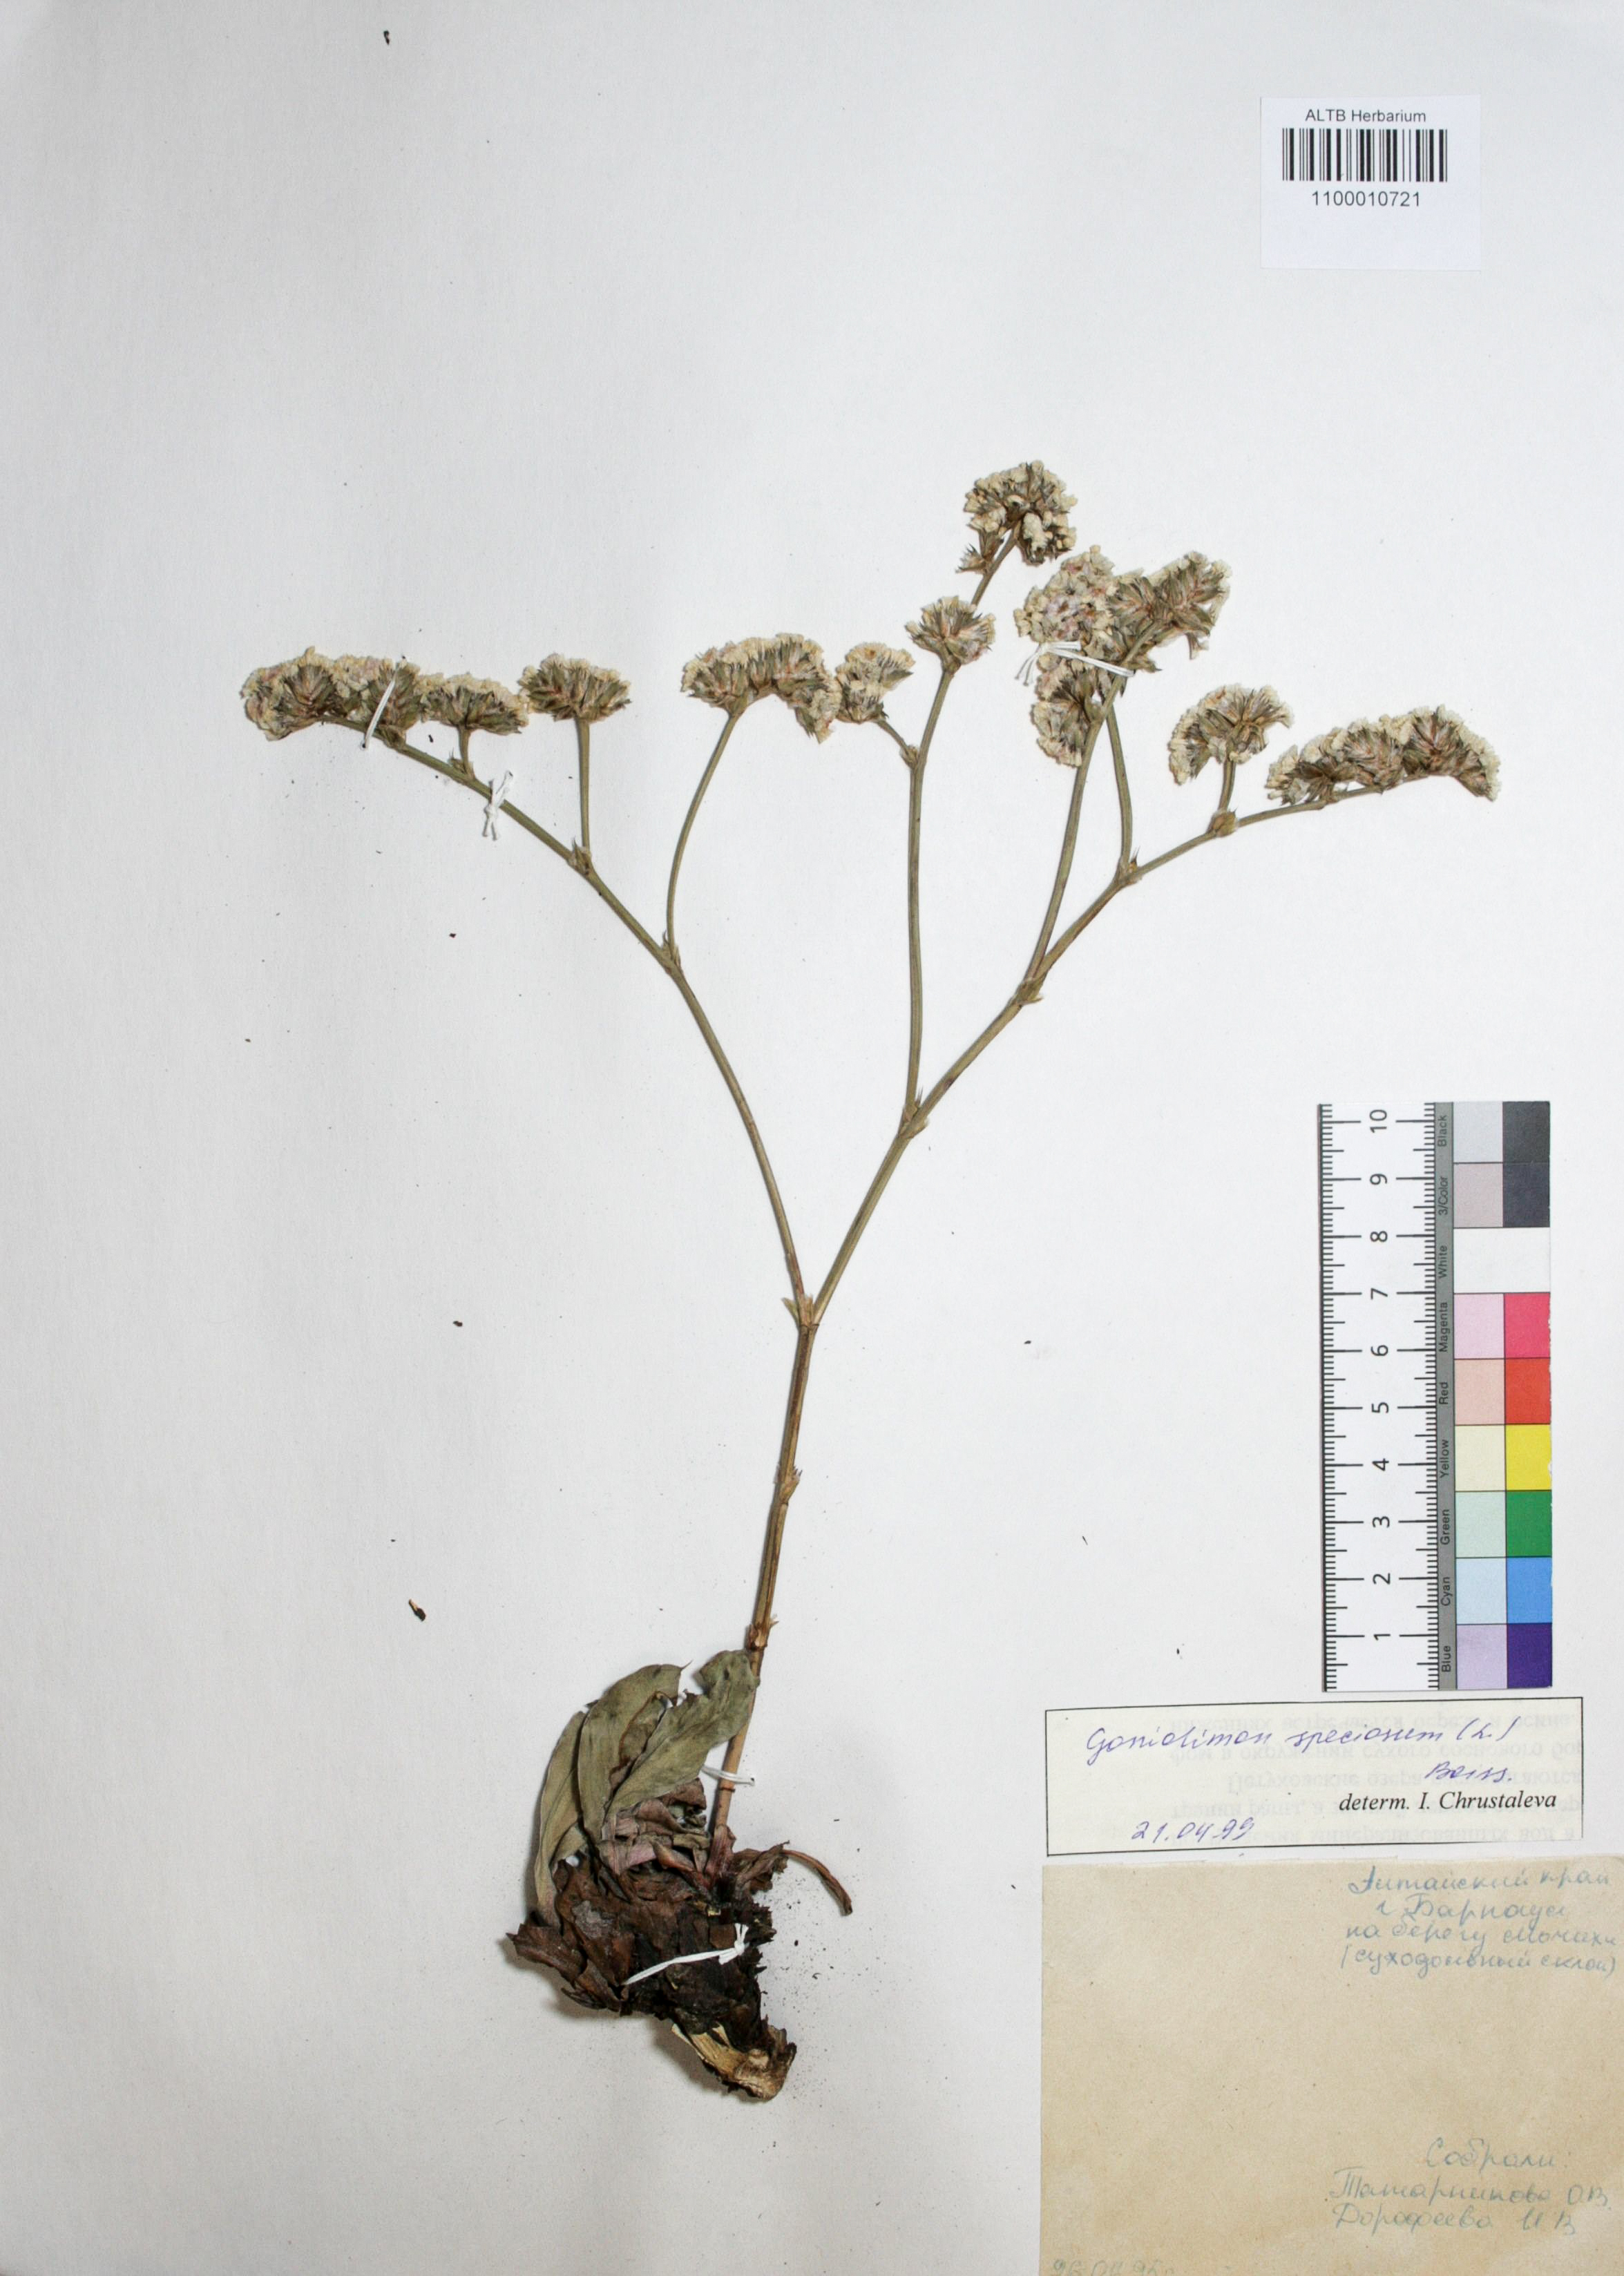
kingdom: Plantae
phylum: Tracheophyta
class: Magnoliopsida
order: Caryophyllales
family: Plumbaginaceae
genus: Goniolimon
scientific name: Goniolimon speciosum
